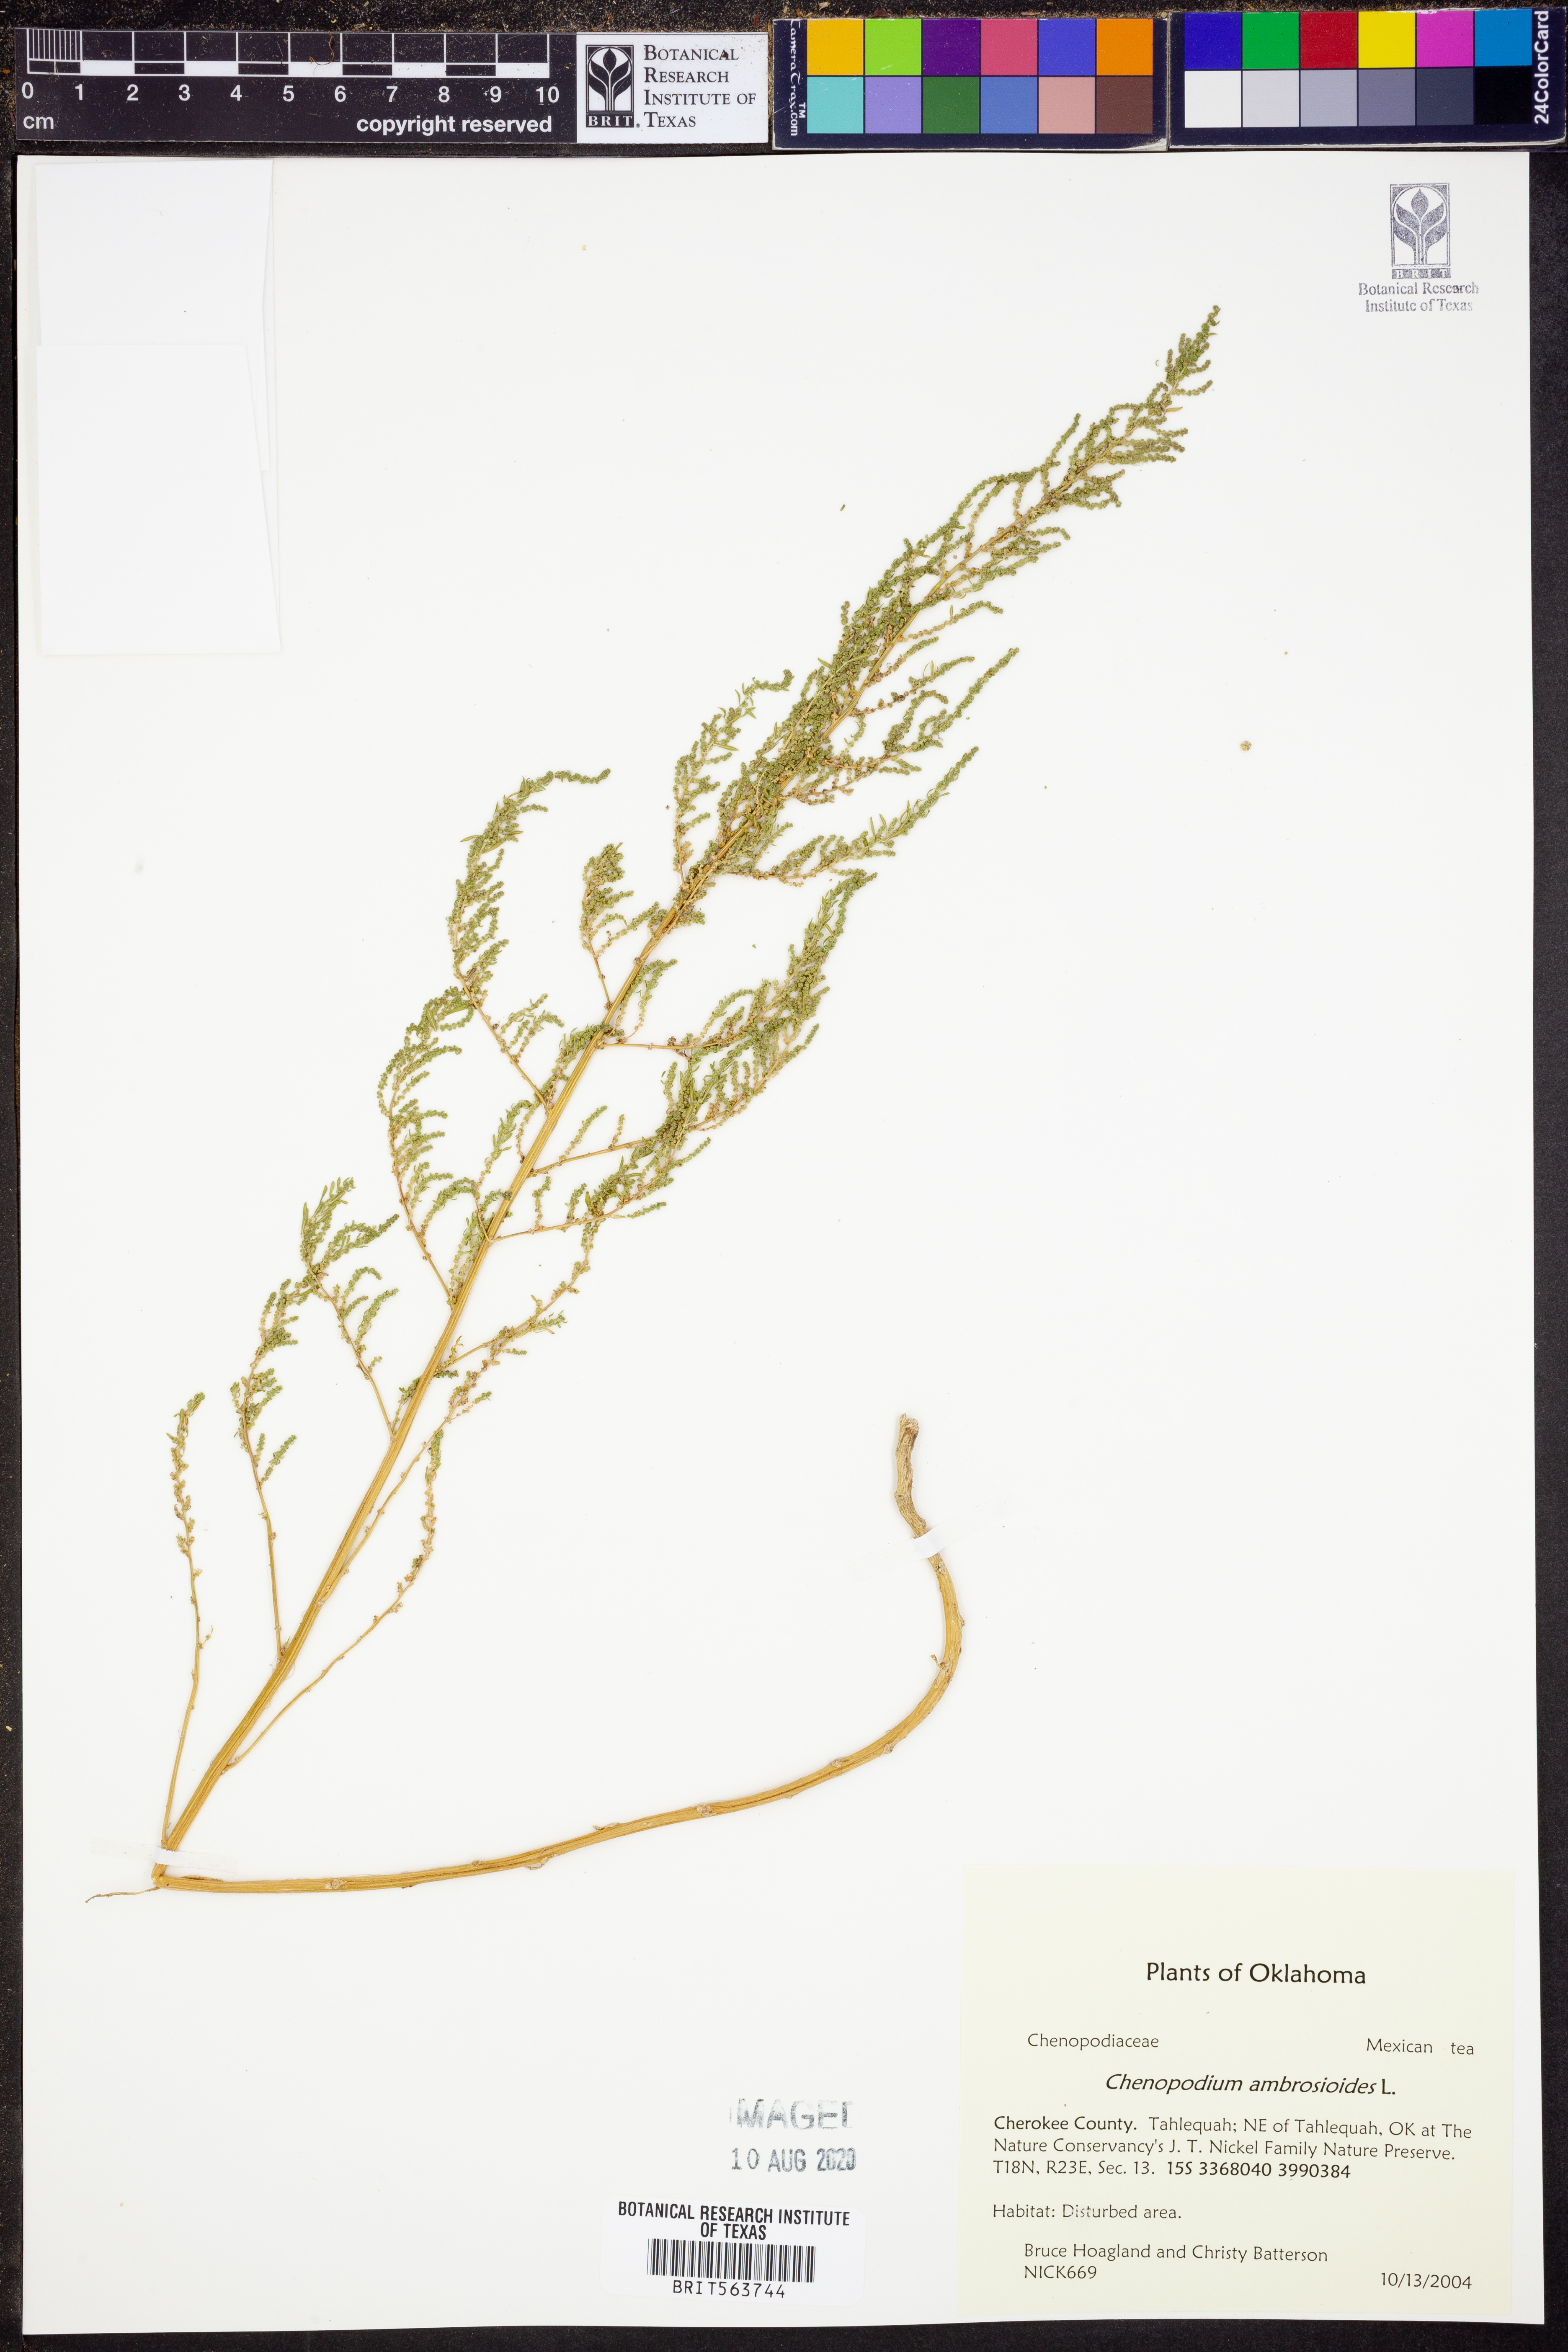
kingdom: Plantae
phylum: Tracheophyta
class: Magnoliopsida
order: Caryophyllales
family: Amaranthaceae
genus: Dysphania
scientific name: Dysphania ambrosioides
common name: Wormseed
